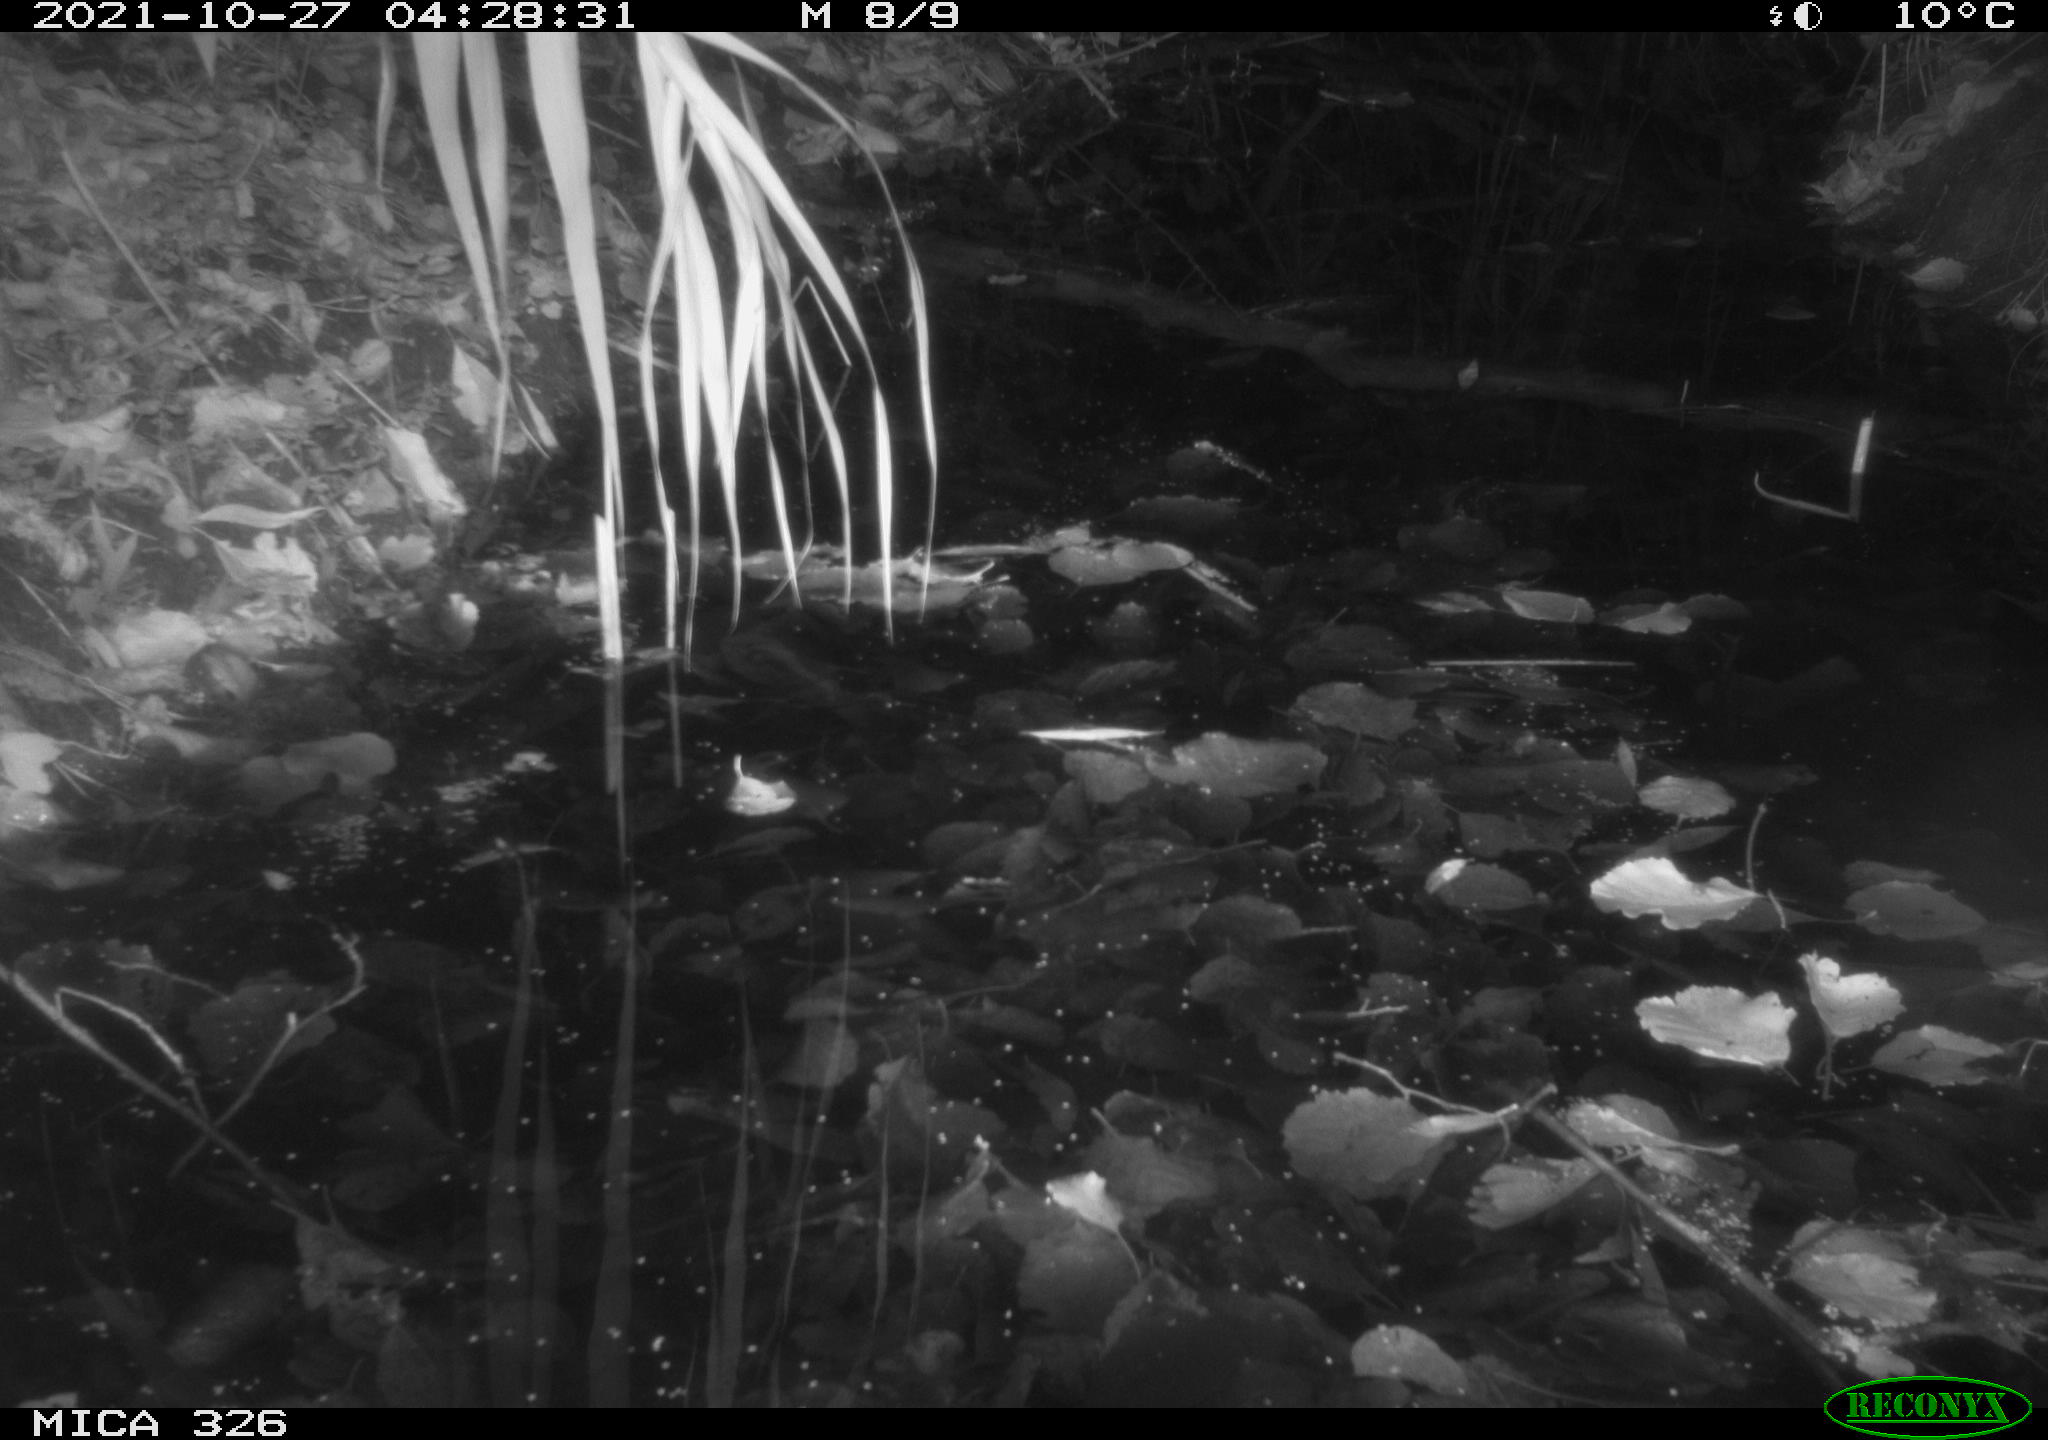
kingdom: Animalia
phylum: Chordata
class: Mammalia
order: Rodentia
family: Muridae
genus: Rattus
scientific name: Rattus norvegicus
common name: Brown rat
